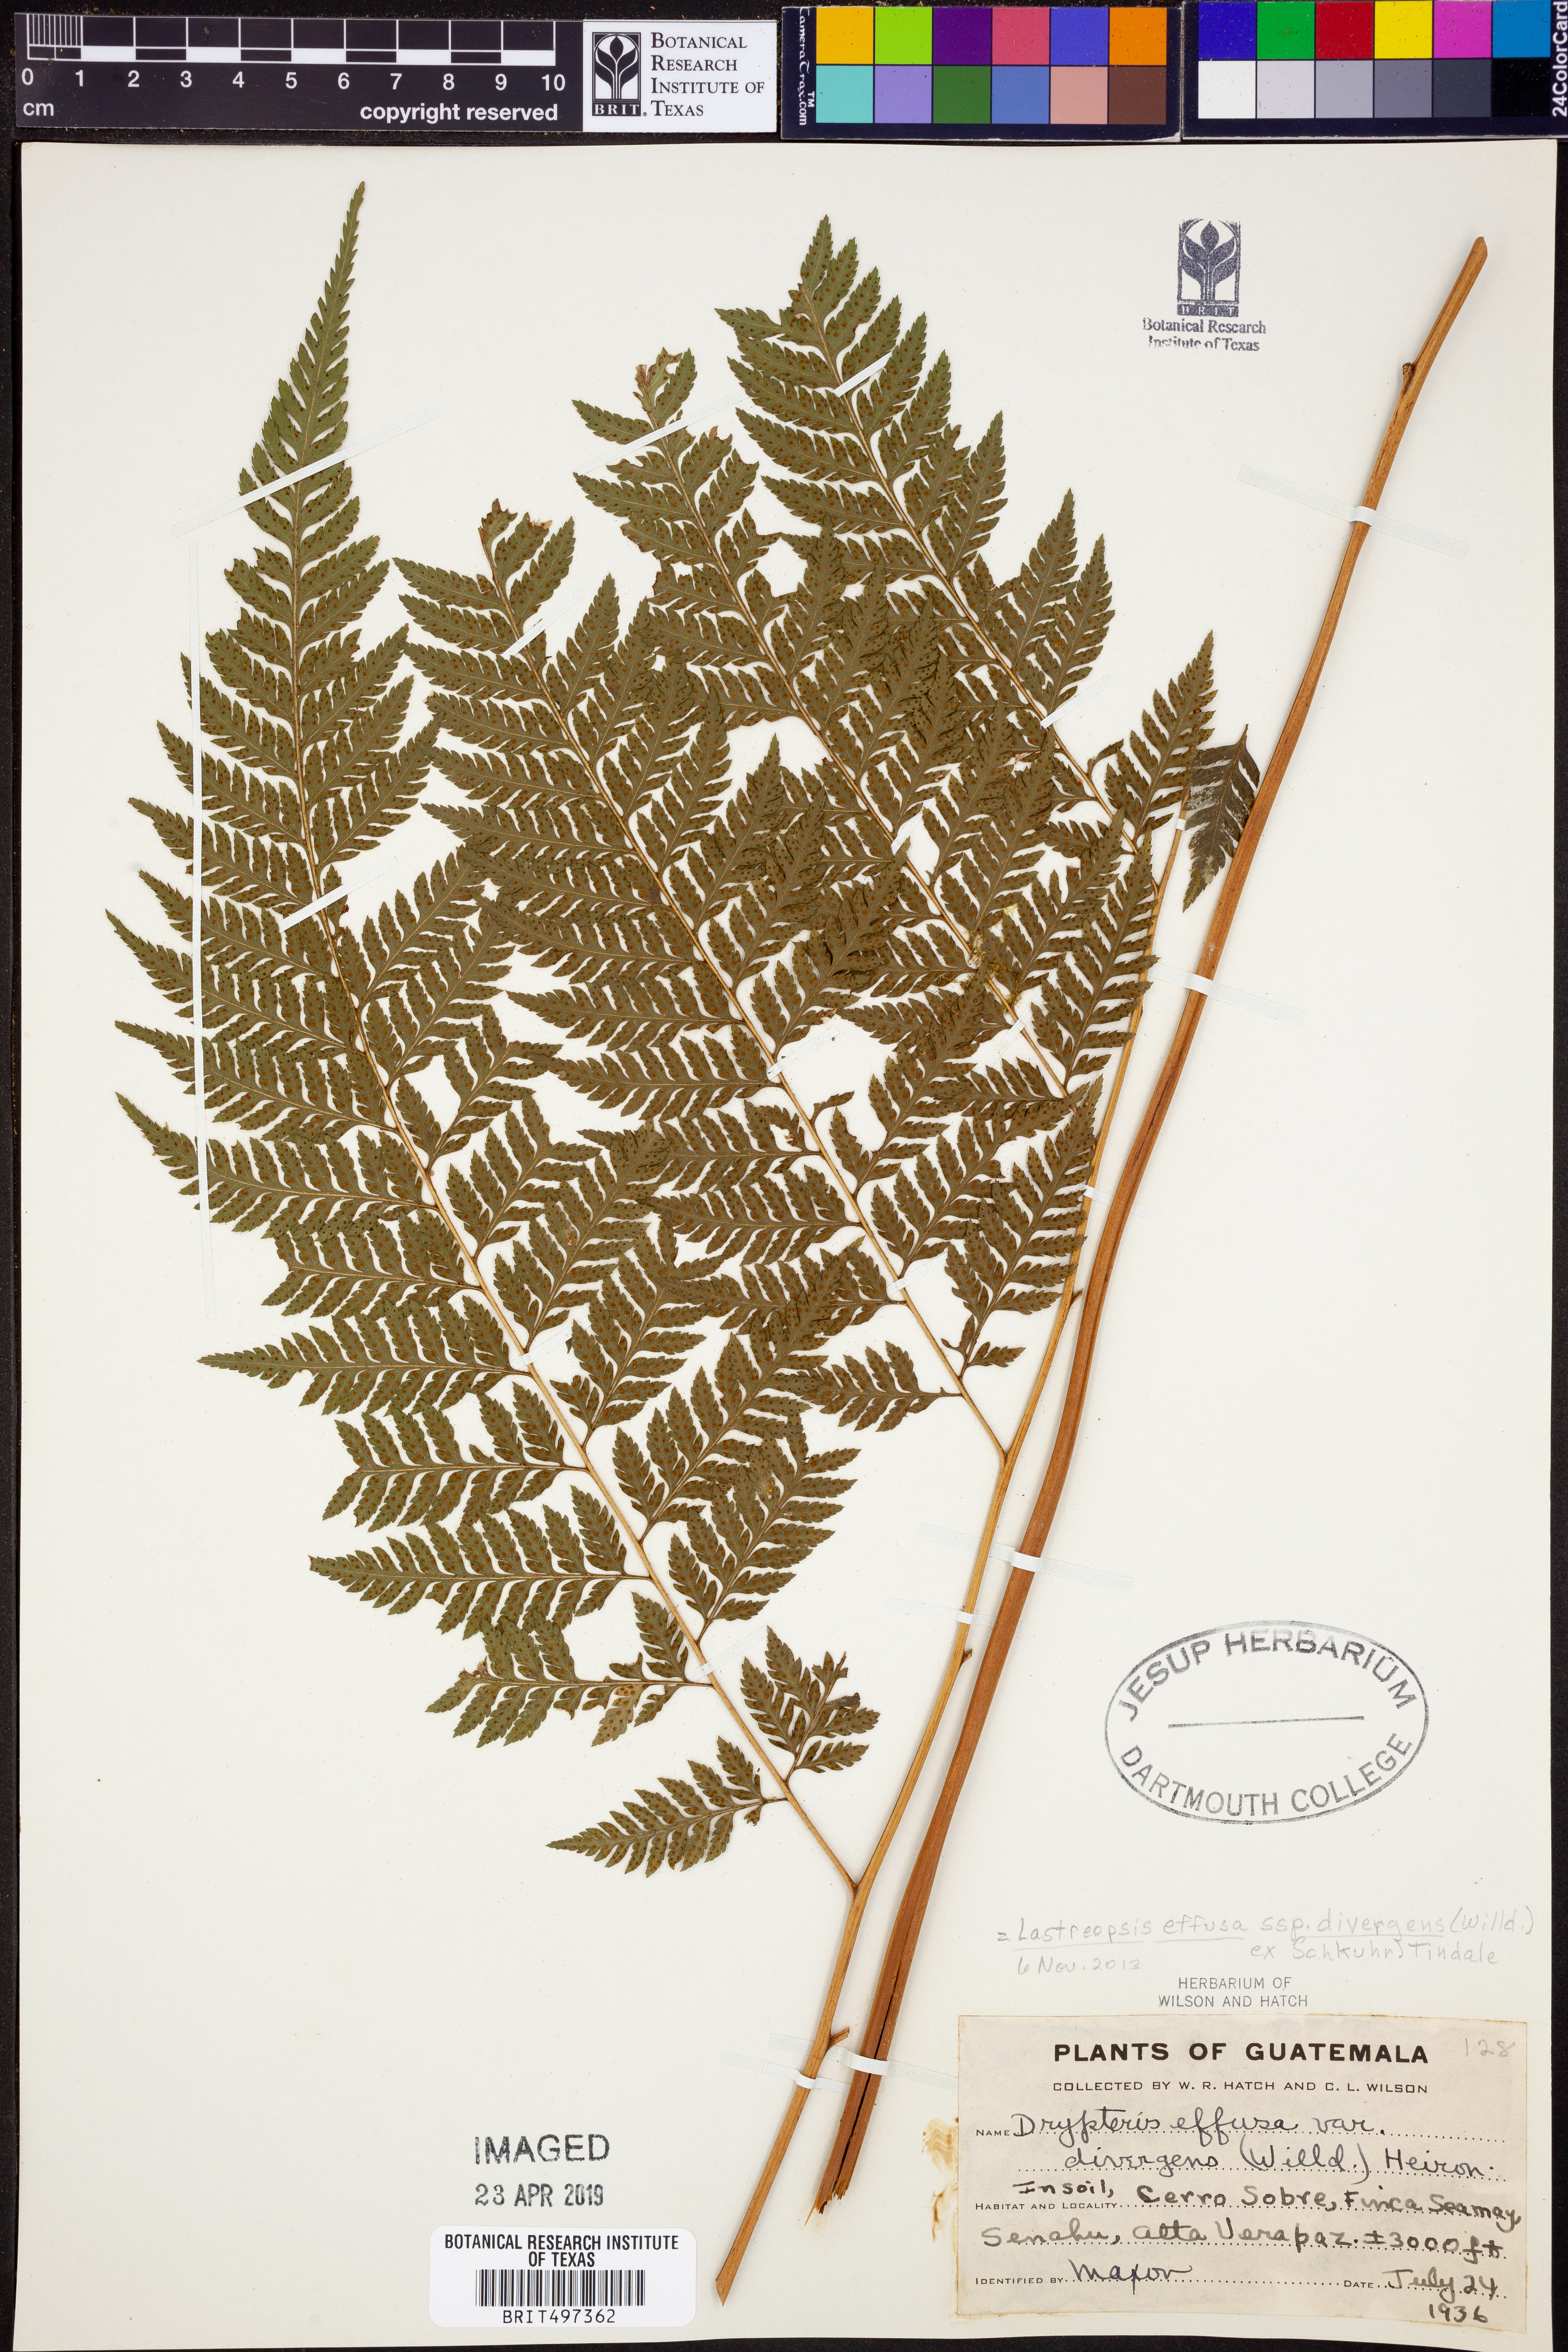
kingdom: Plantae
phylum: Tracheophyta
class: Polypodiopsida
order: Polypodiales
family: Dryopteridaceae
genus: Parapolystichum
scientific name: Parapolystichum effusum
